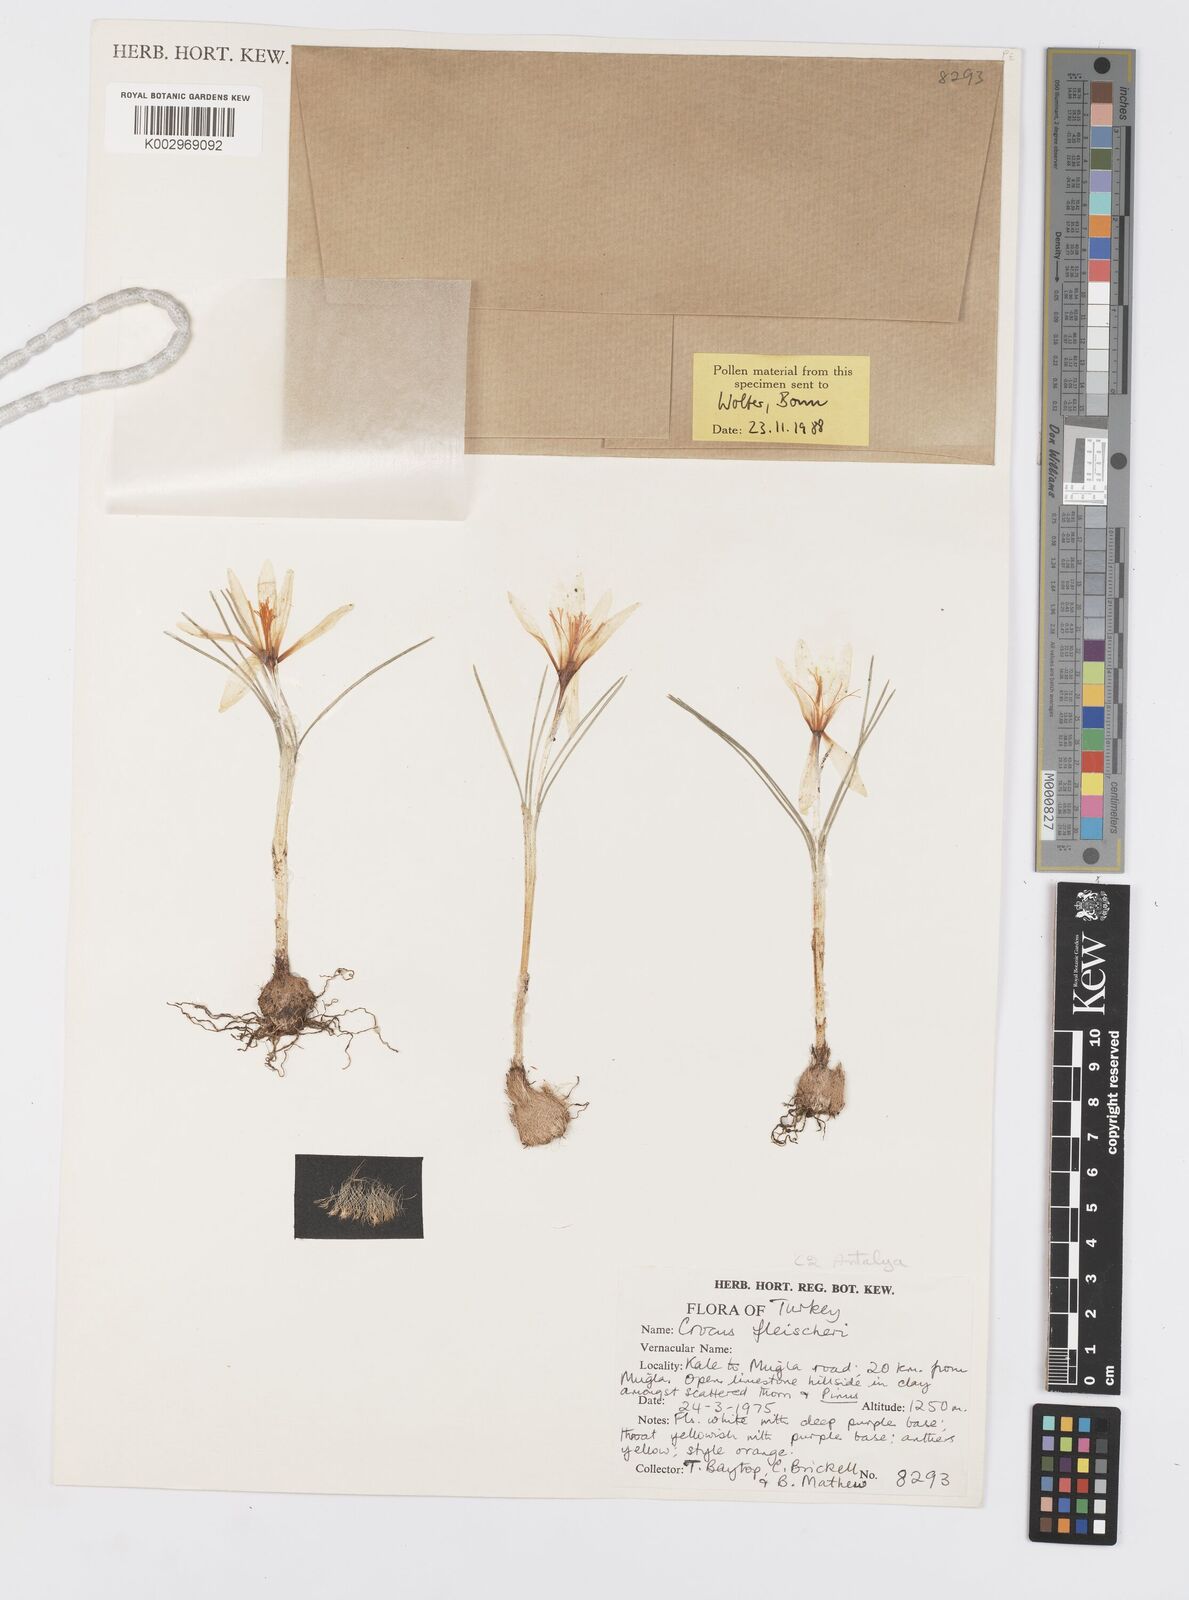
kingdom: Plantae
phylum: Tracheophyta
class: Liliopsida
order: Asparagales
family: Iridaceae
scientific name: Iridaceae
